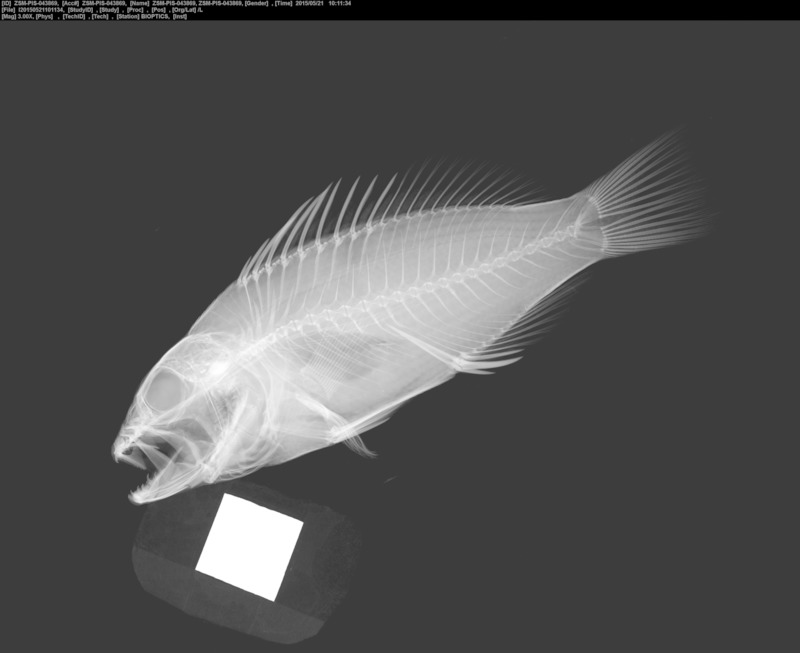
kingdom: Animalia
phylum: Chordata
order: Perciformes
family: Serranidae
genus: Serranus
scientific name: Serranus pulcher
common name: São tomé comber
